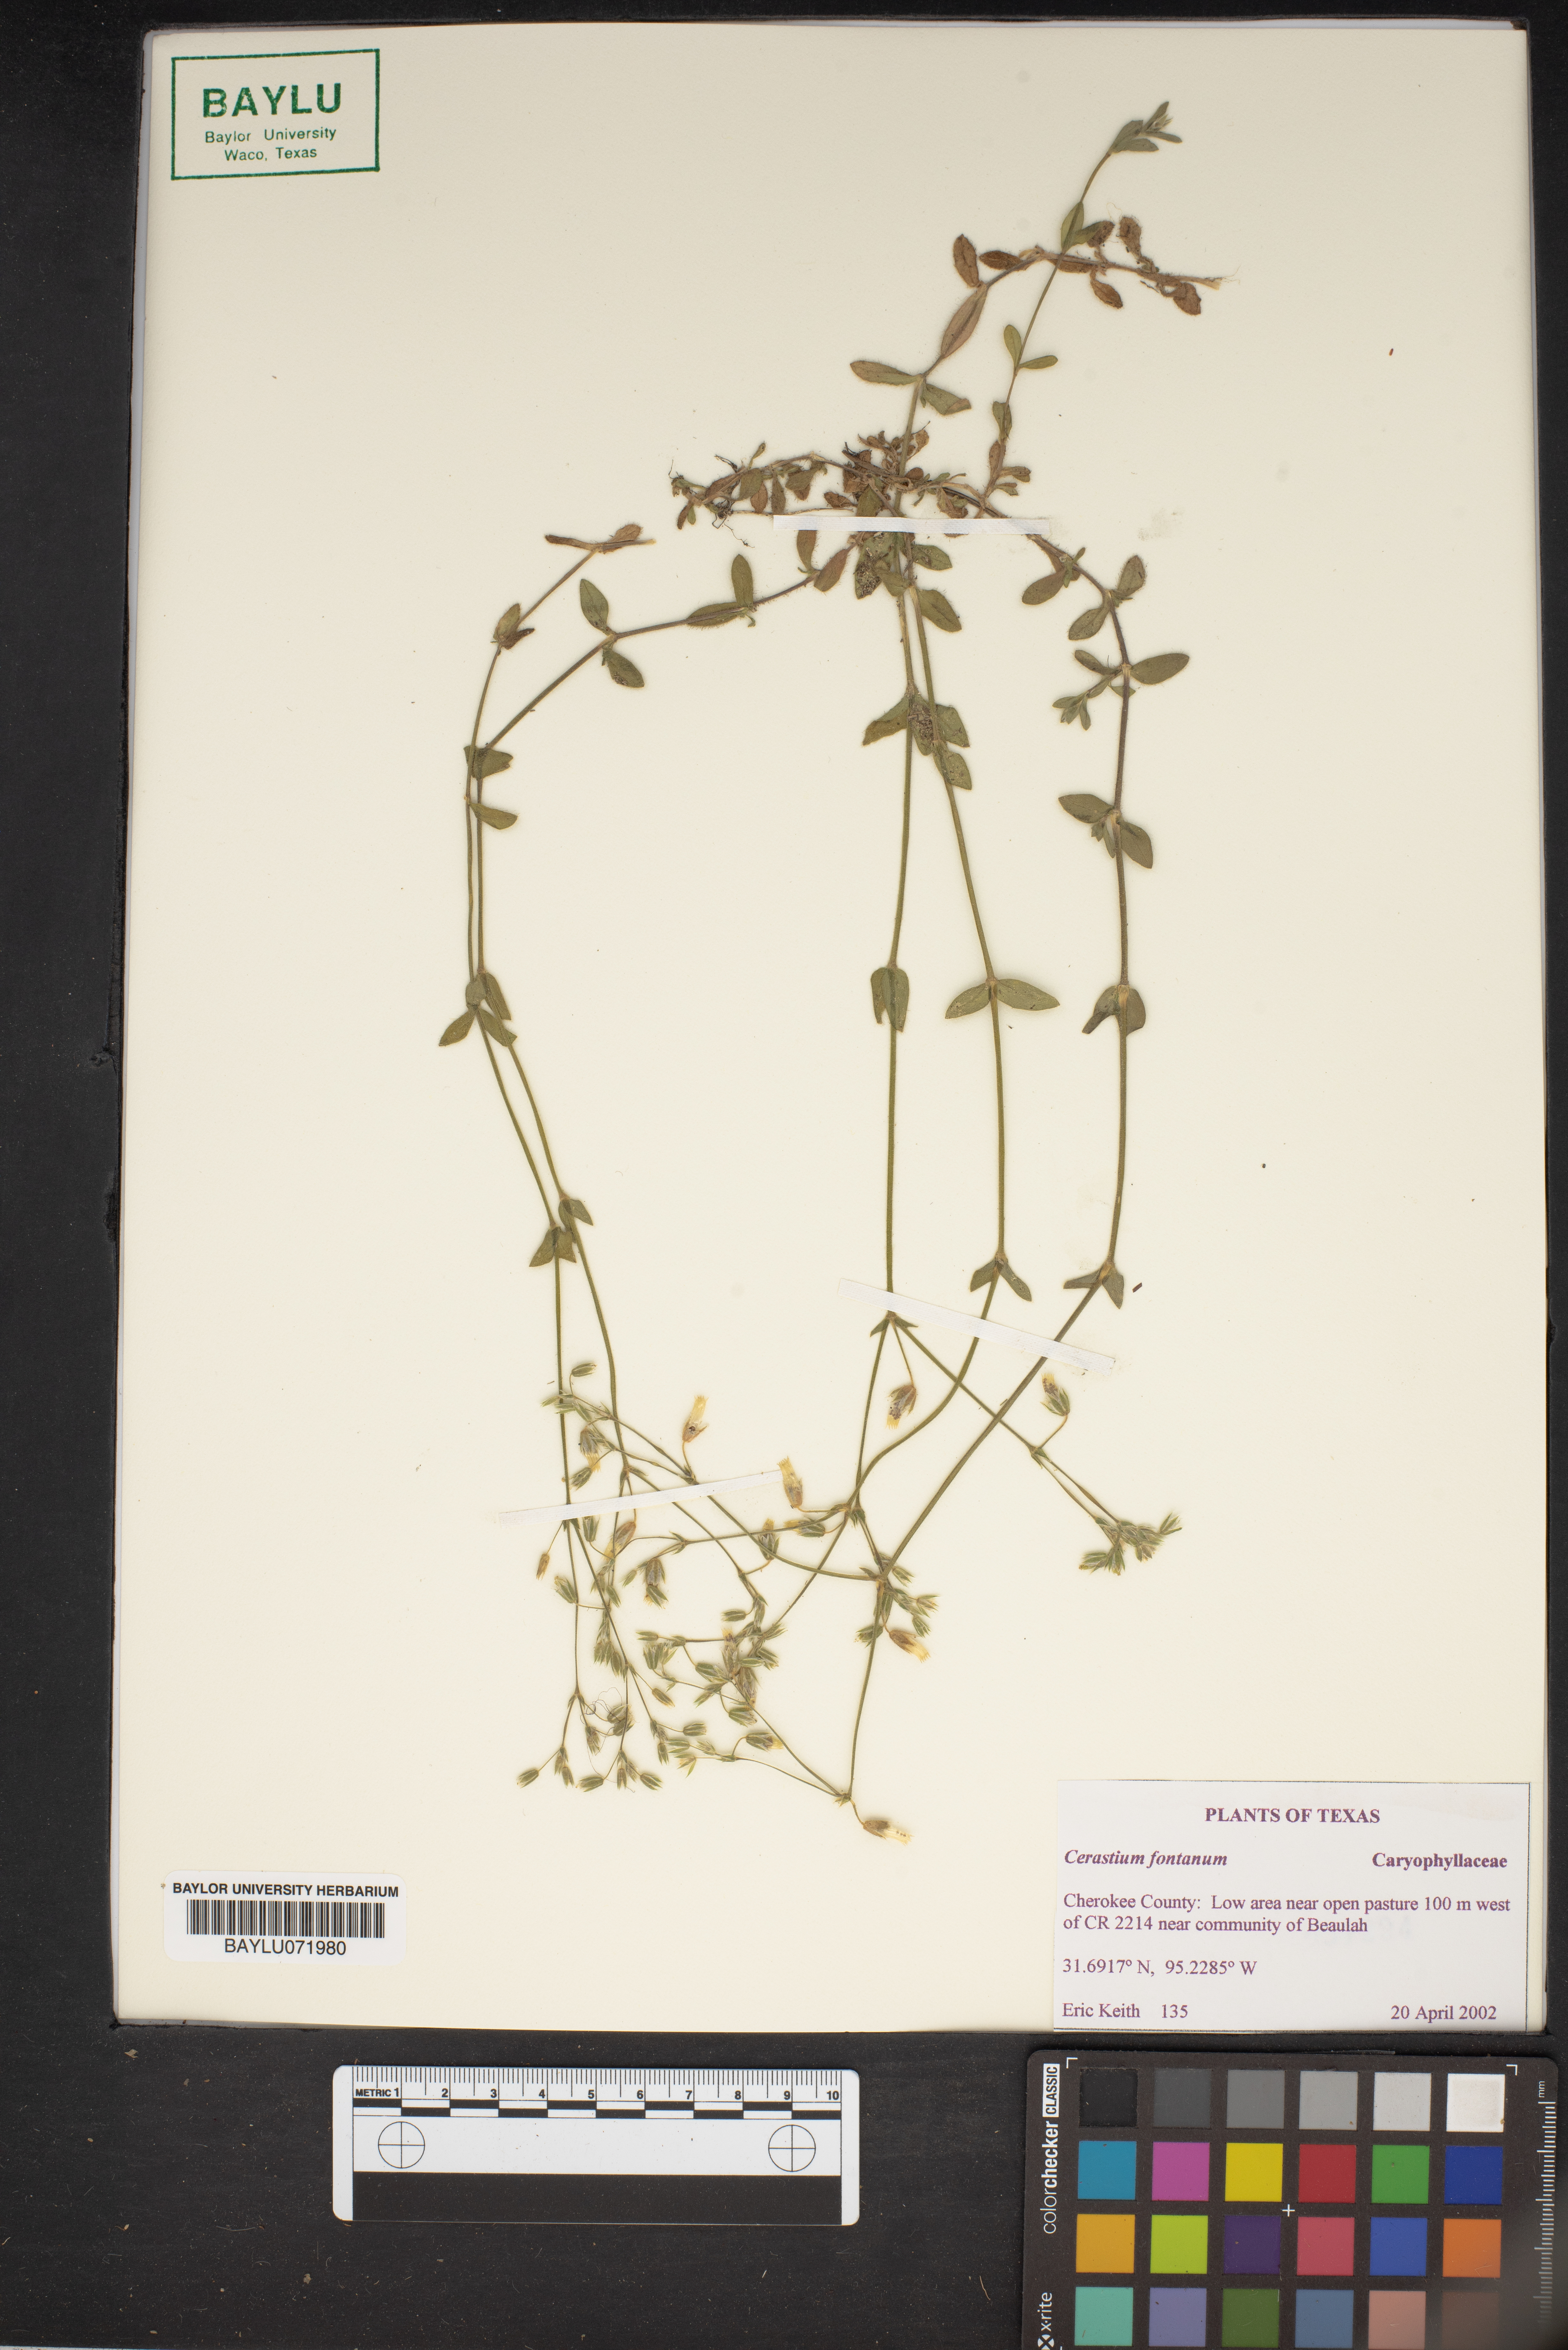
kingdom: Plantae
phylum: Tracheophyta
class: Magnoliopsida
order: Caryophyllales
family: Caryophyllaceae
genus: Cerastium
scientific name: Cerastium fontanum
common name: Common mouse-ear
